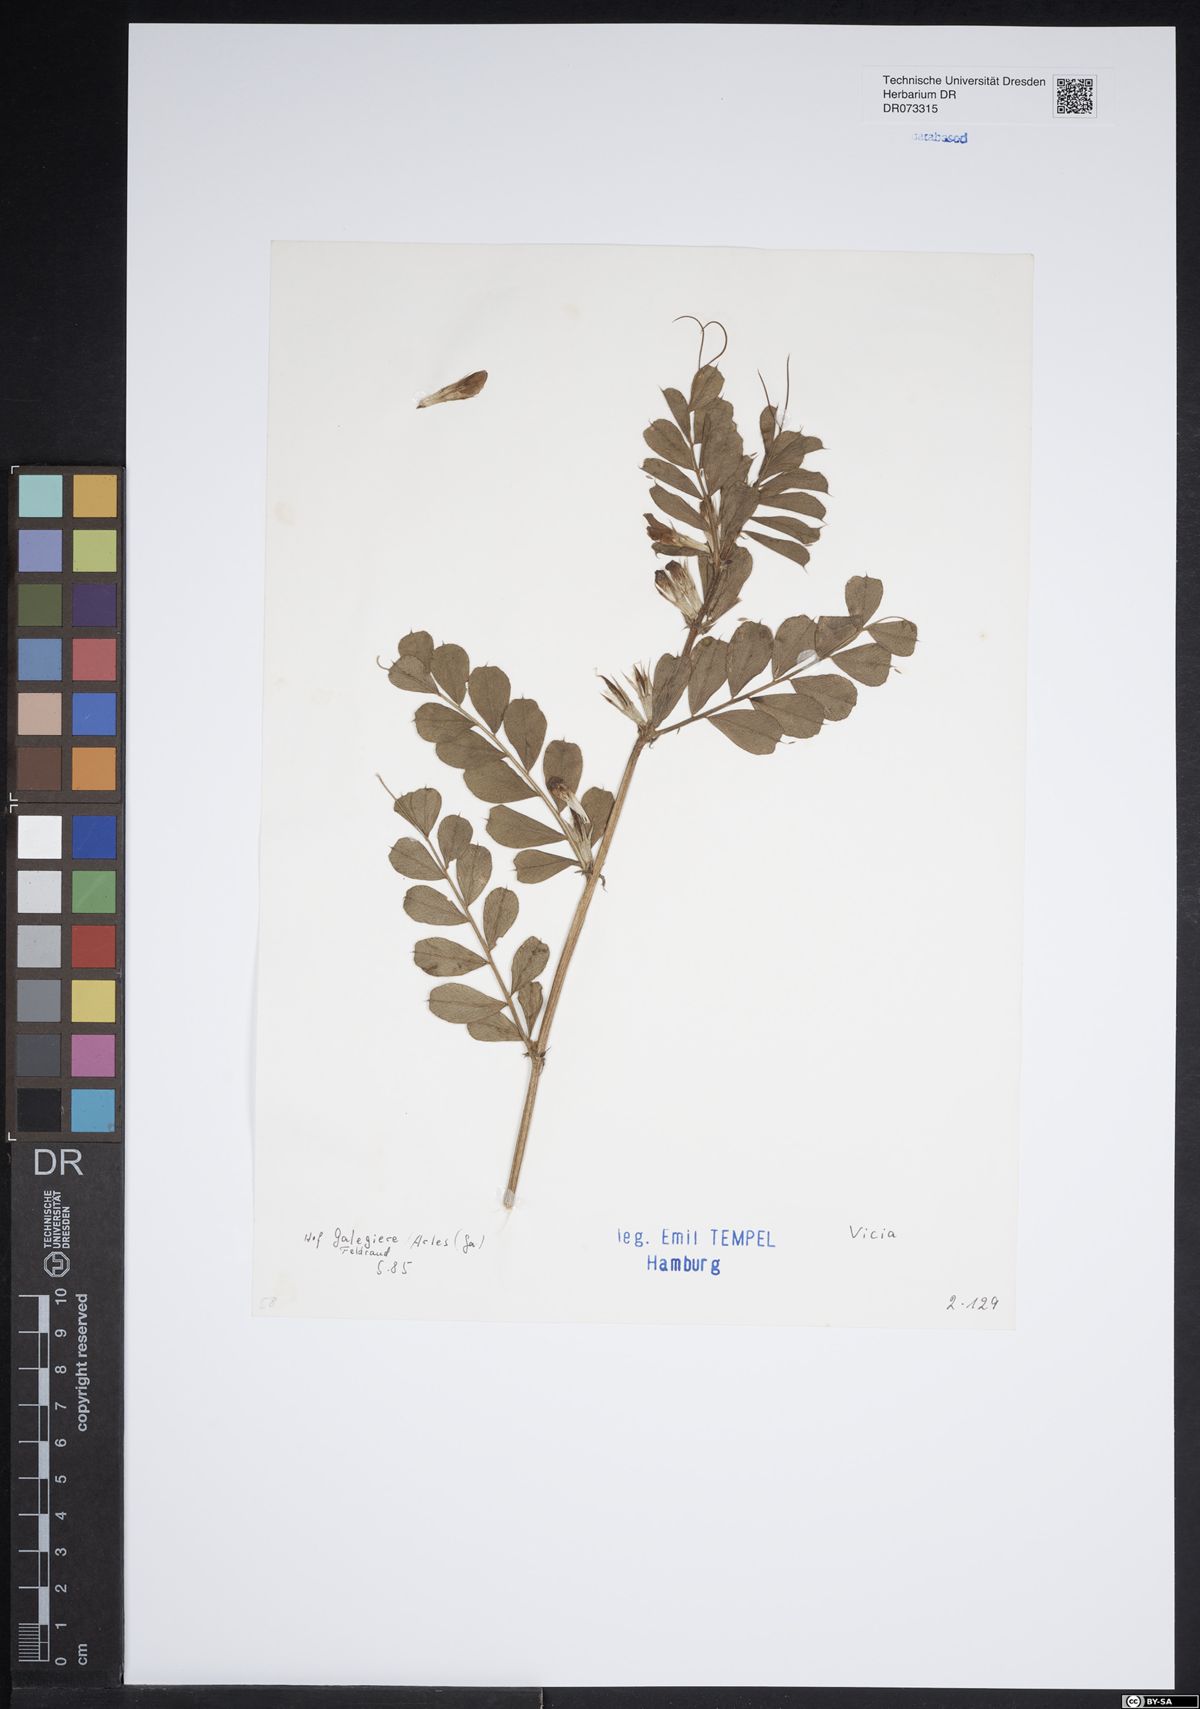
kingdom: Plantae
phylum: Tracheophyta
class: Magnoliopsida
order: Fabales
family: Fabaceae
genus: Vicia
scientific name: Vicia
